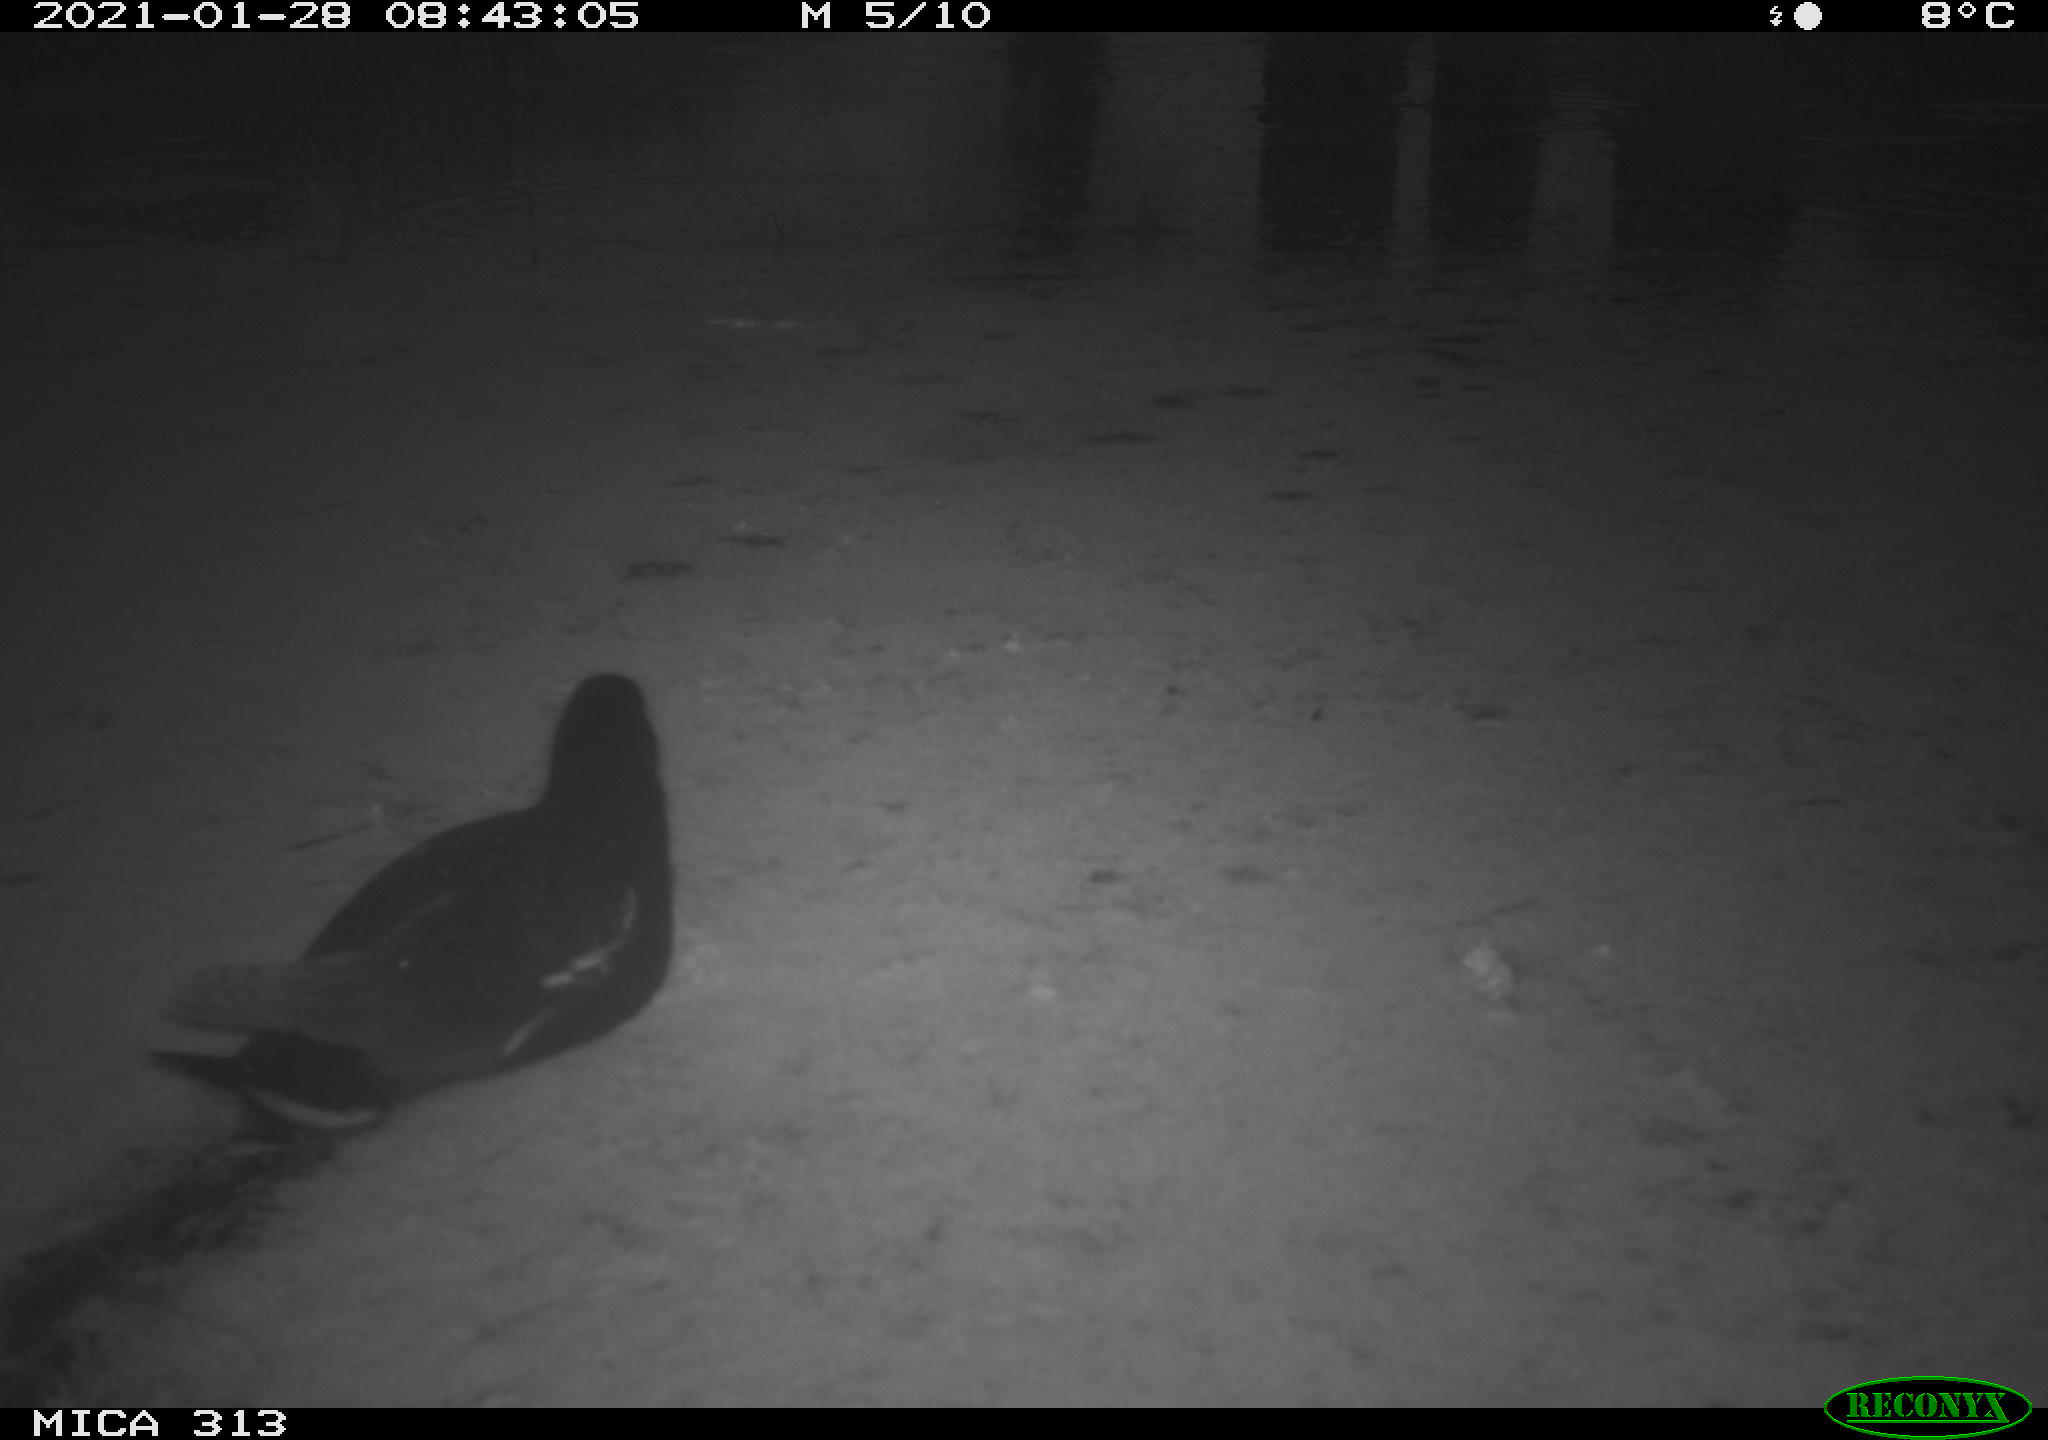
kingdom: Animalia
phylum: Chordata
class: Aves
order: Gruiformes
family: Rallidae
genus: Gallinula
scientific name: Gallinula chloropus
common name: Common moorhen
